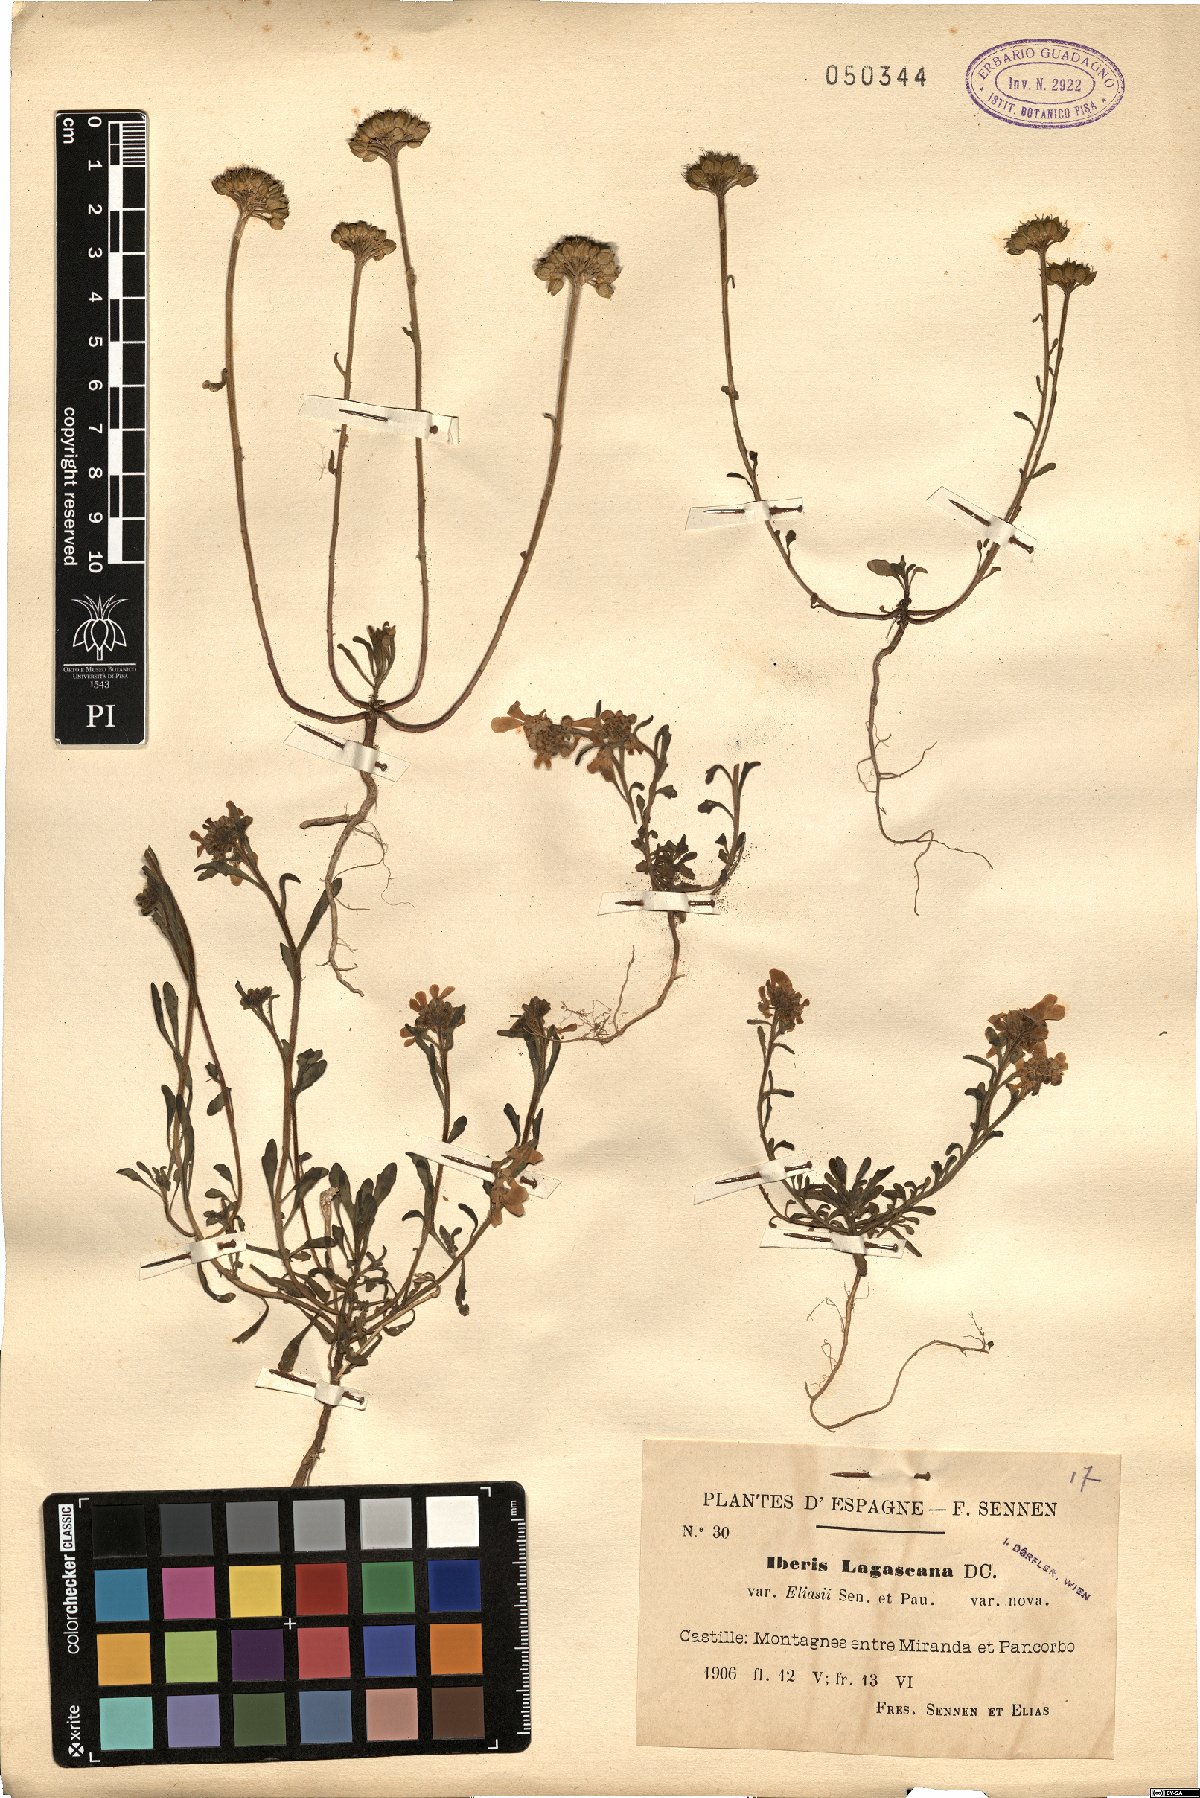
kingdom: Plantae
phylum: Tracheophyta
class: Magnoliopsida
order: Brassicales
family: Brassicaceae
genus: Iberis
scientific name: Iberis carnosa
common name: Pruit's candytuft
